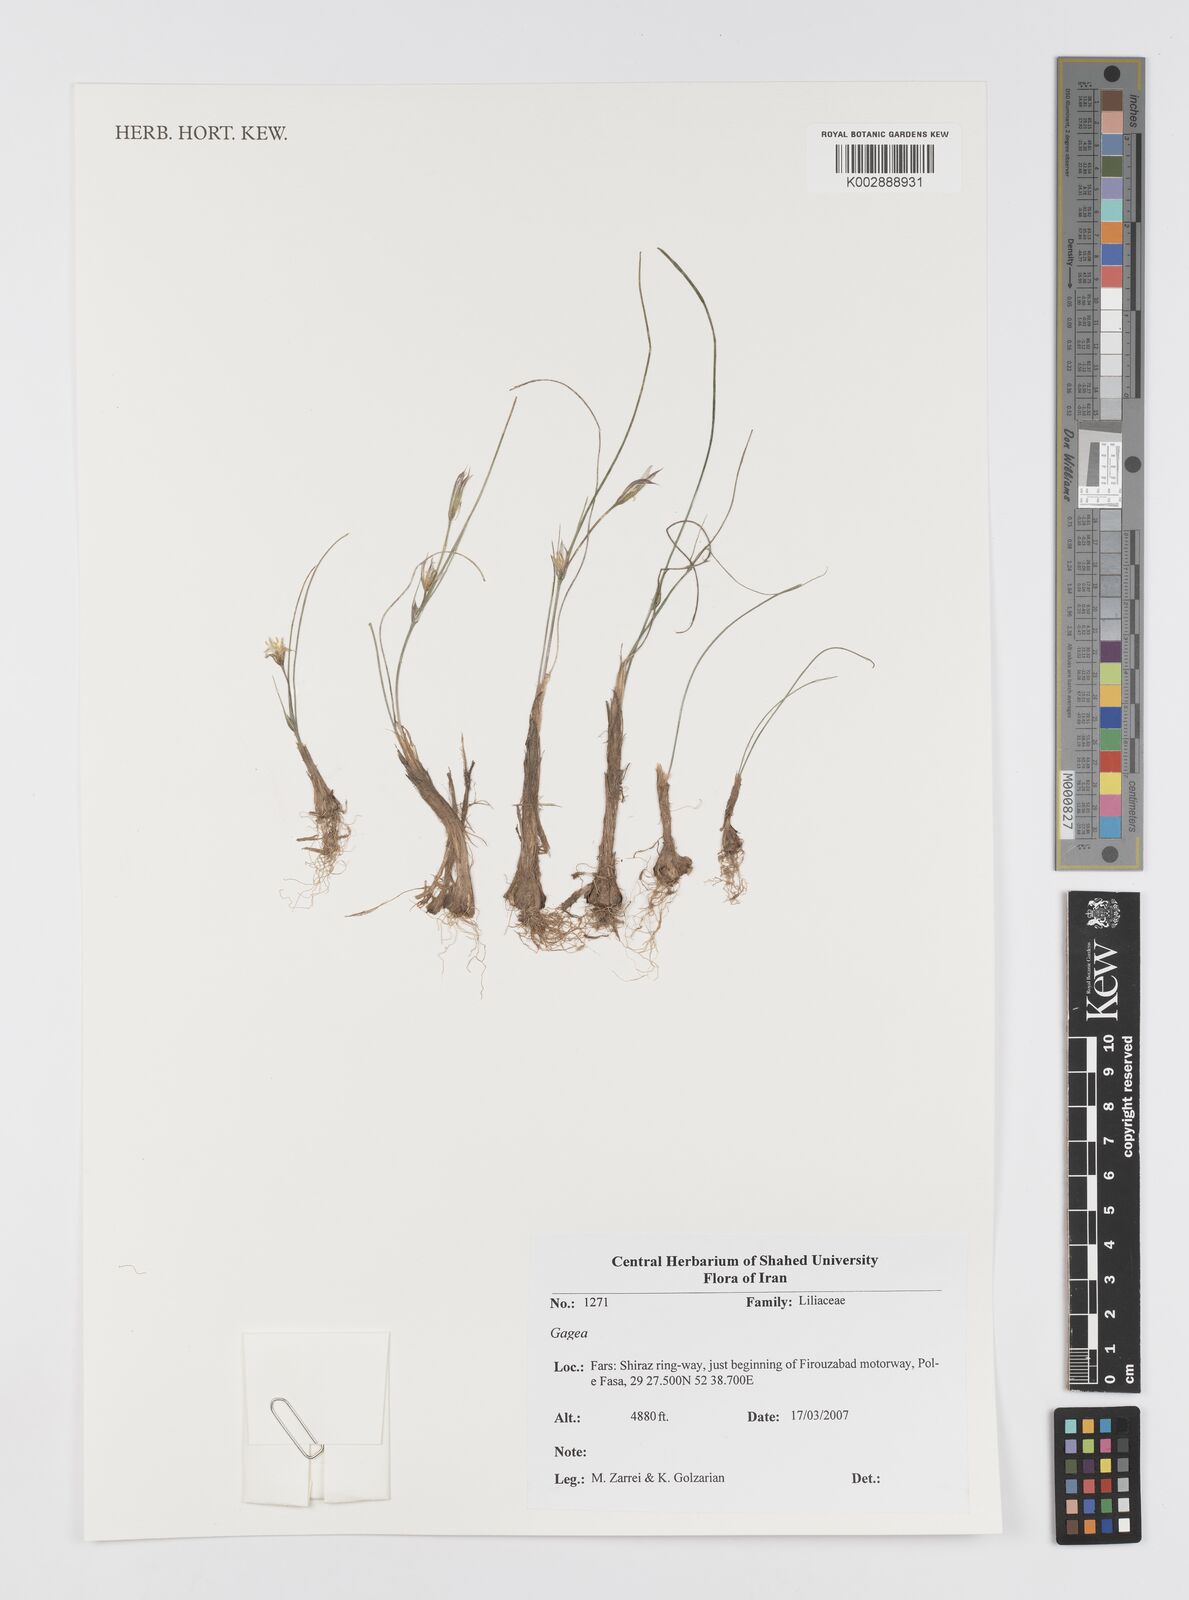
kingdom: Plantae
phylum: Tracheophyta
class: Liliopsida
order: Liliales
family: Liliaceae
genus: Gagea
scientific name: Gagea
